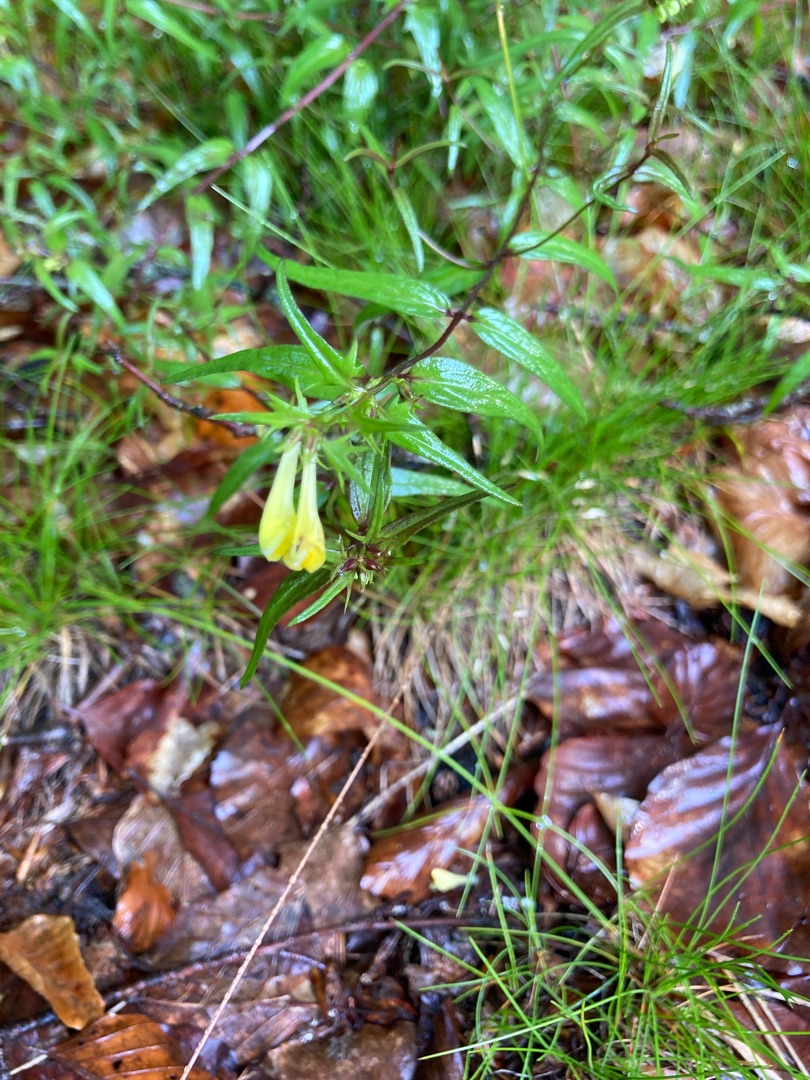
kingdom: Plantae
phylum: Tracheophyta
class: Magnoliopsida
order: Lamiales
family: Orobanchaceae
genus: Melampyrum
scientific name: Melampyrum pratense
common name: Almindelig kohvede
